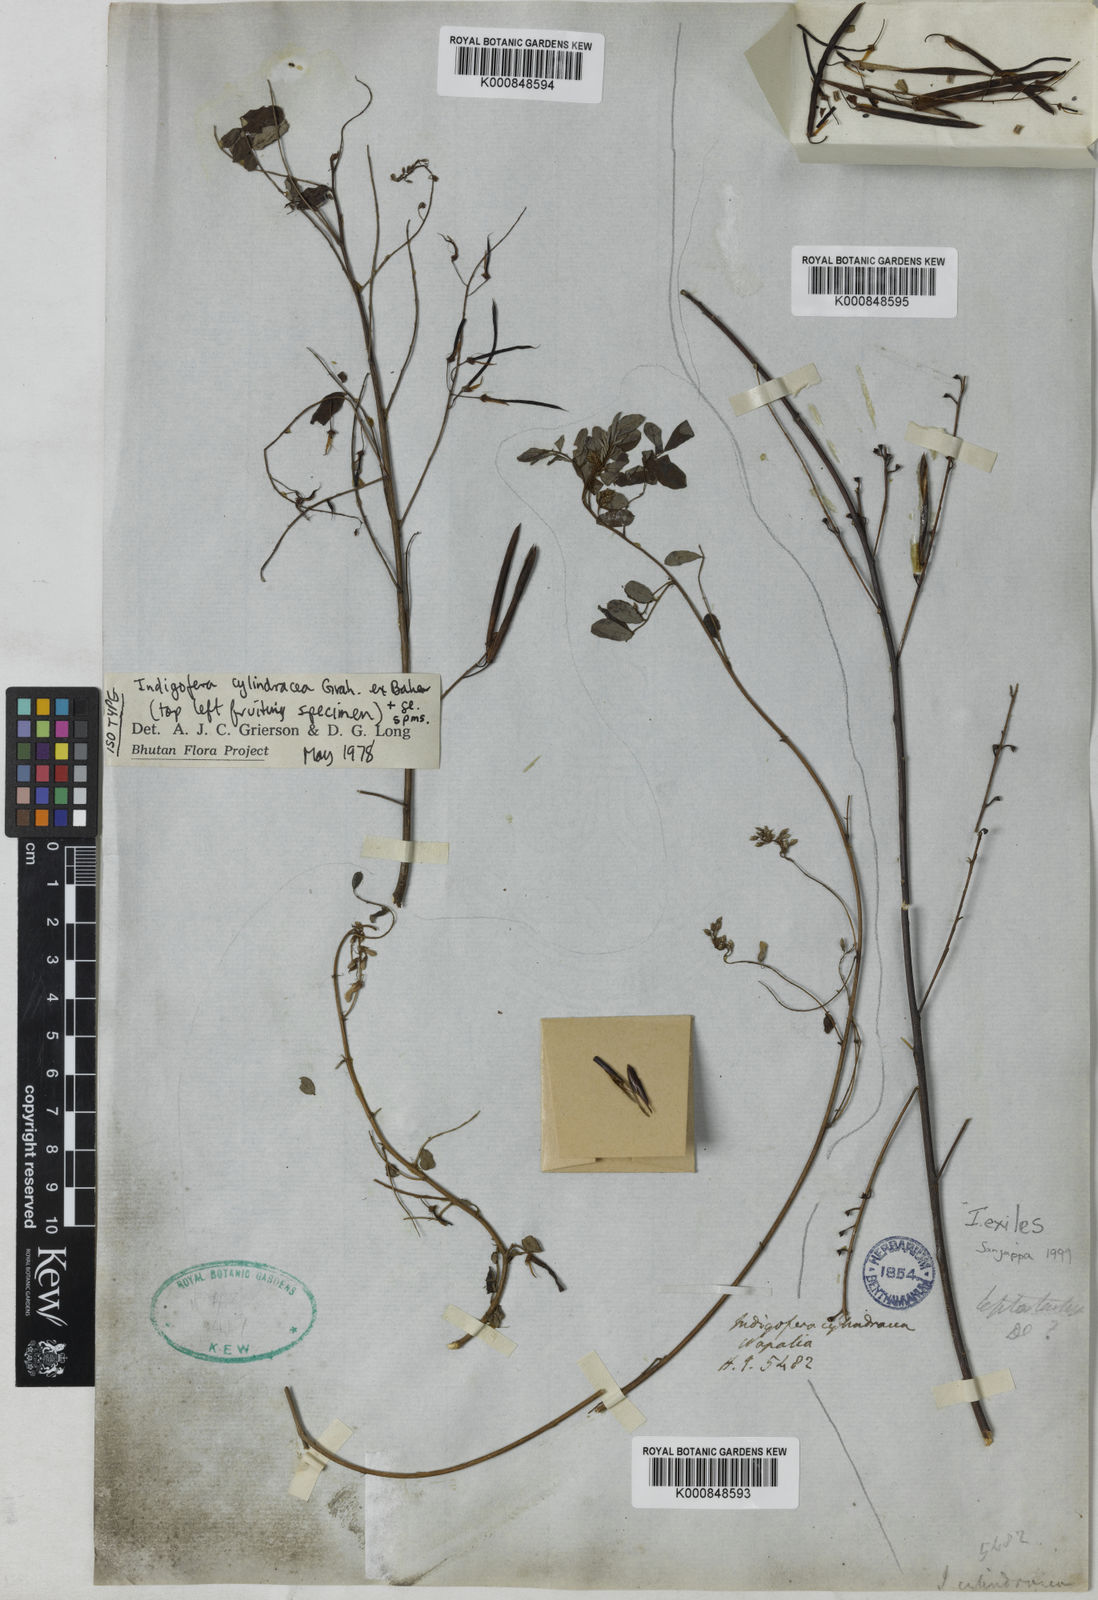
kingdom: Plantae
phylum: Tracheophyta
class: Magnoliopsida
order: Fabales
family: Fabaceae
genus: Indigofera
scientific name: Indigofera cylindracea
